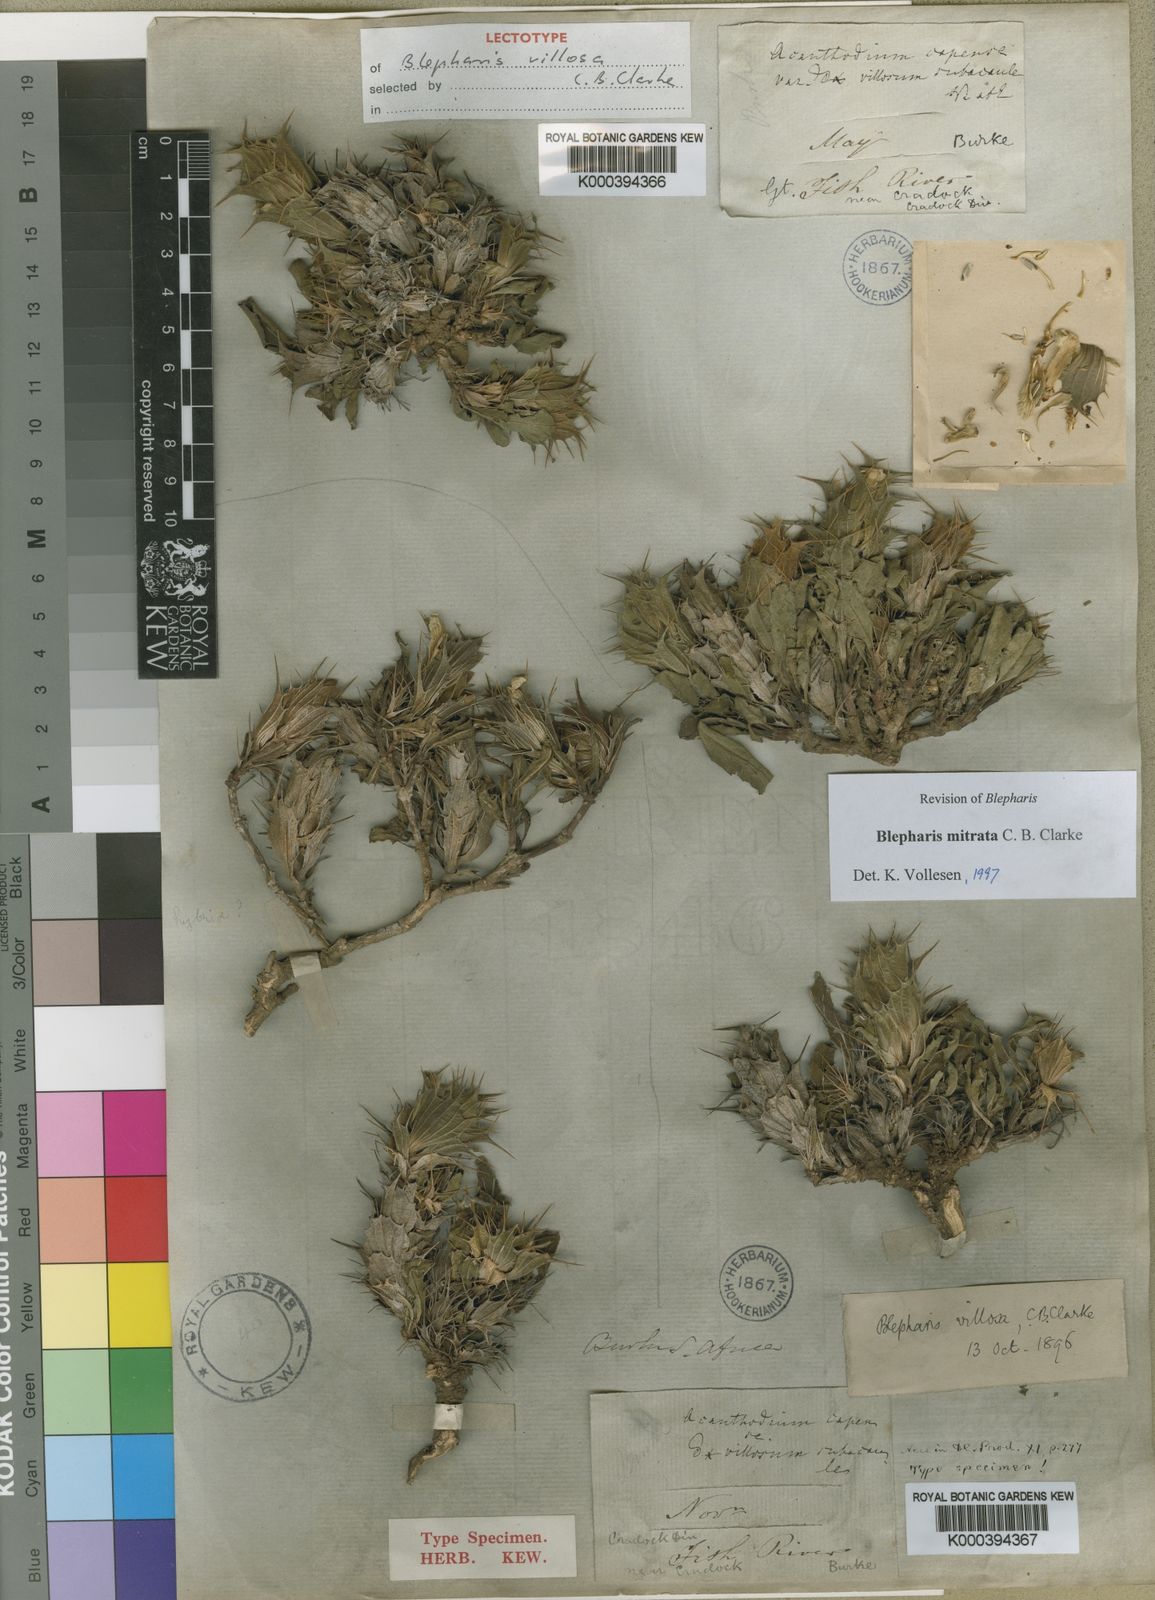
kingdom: Plantae
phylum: Tracheophyta
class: Magnoliopsida
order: Lamiales
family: Acanthaceae
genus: Blepharis
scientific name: Blepharis mitrata
